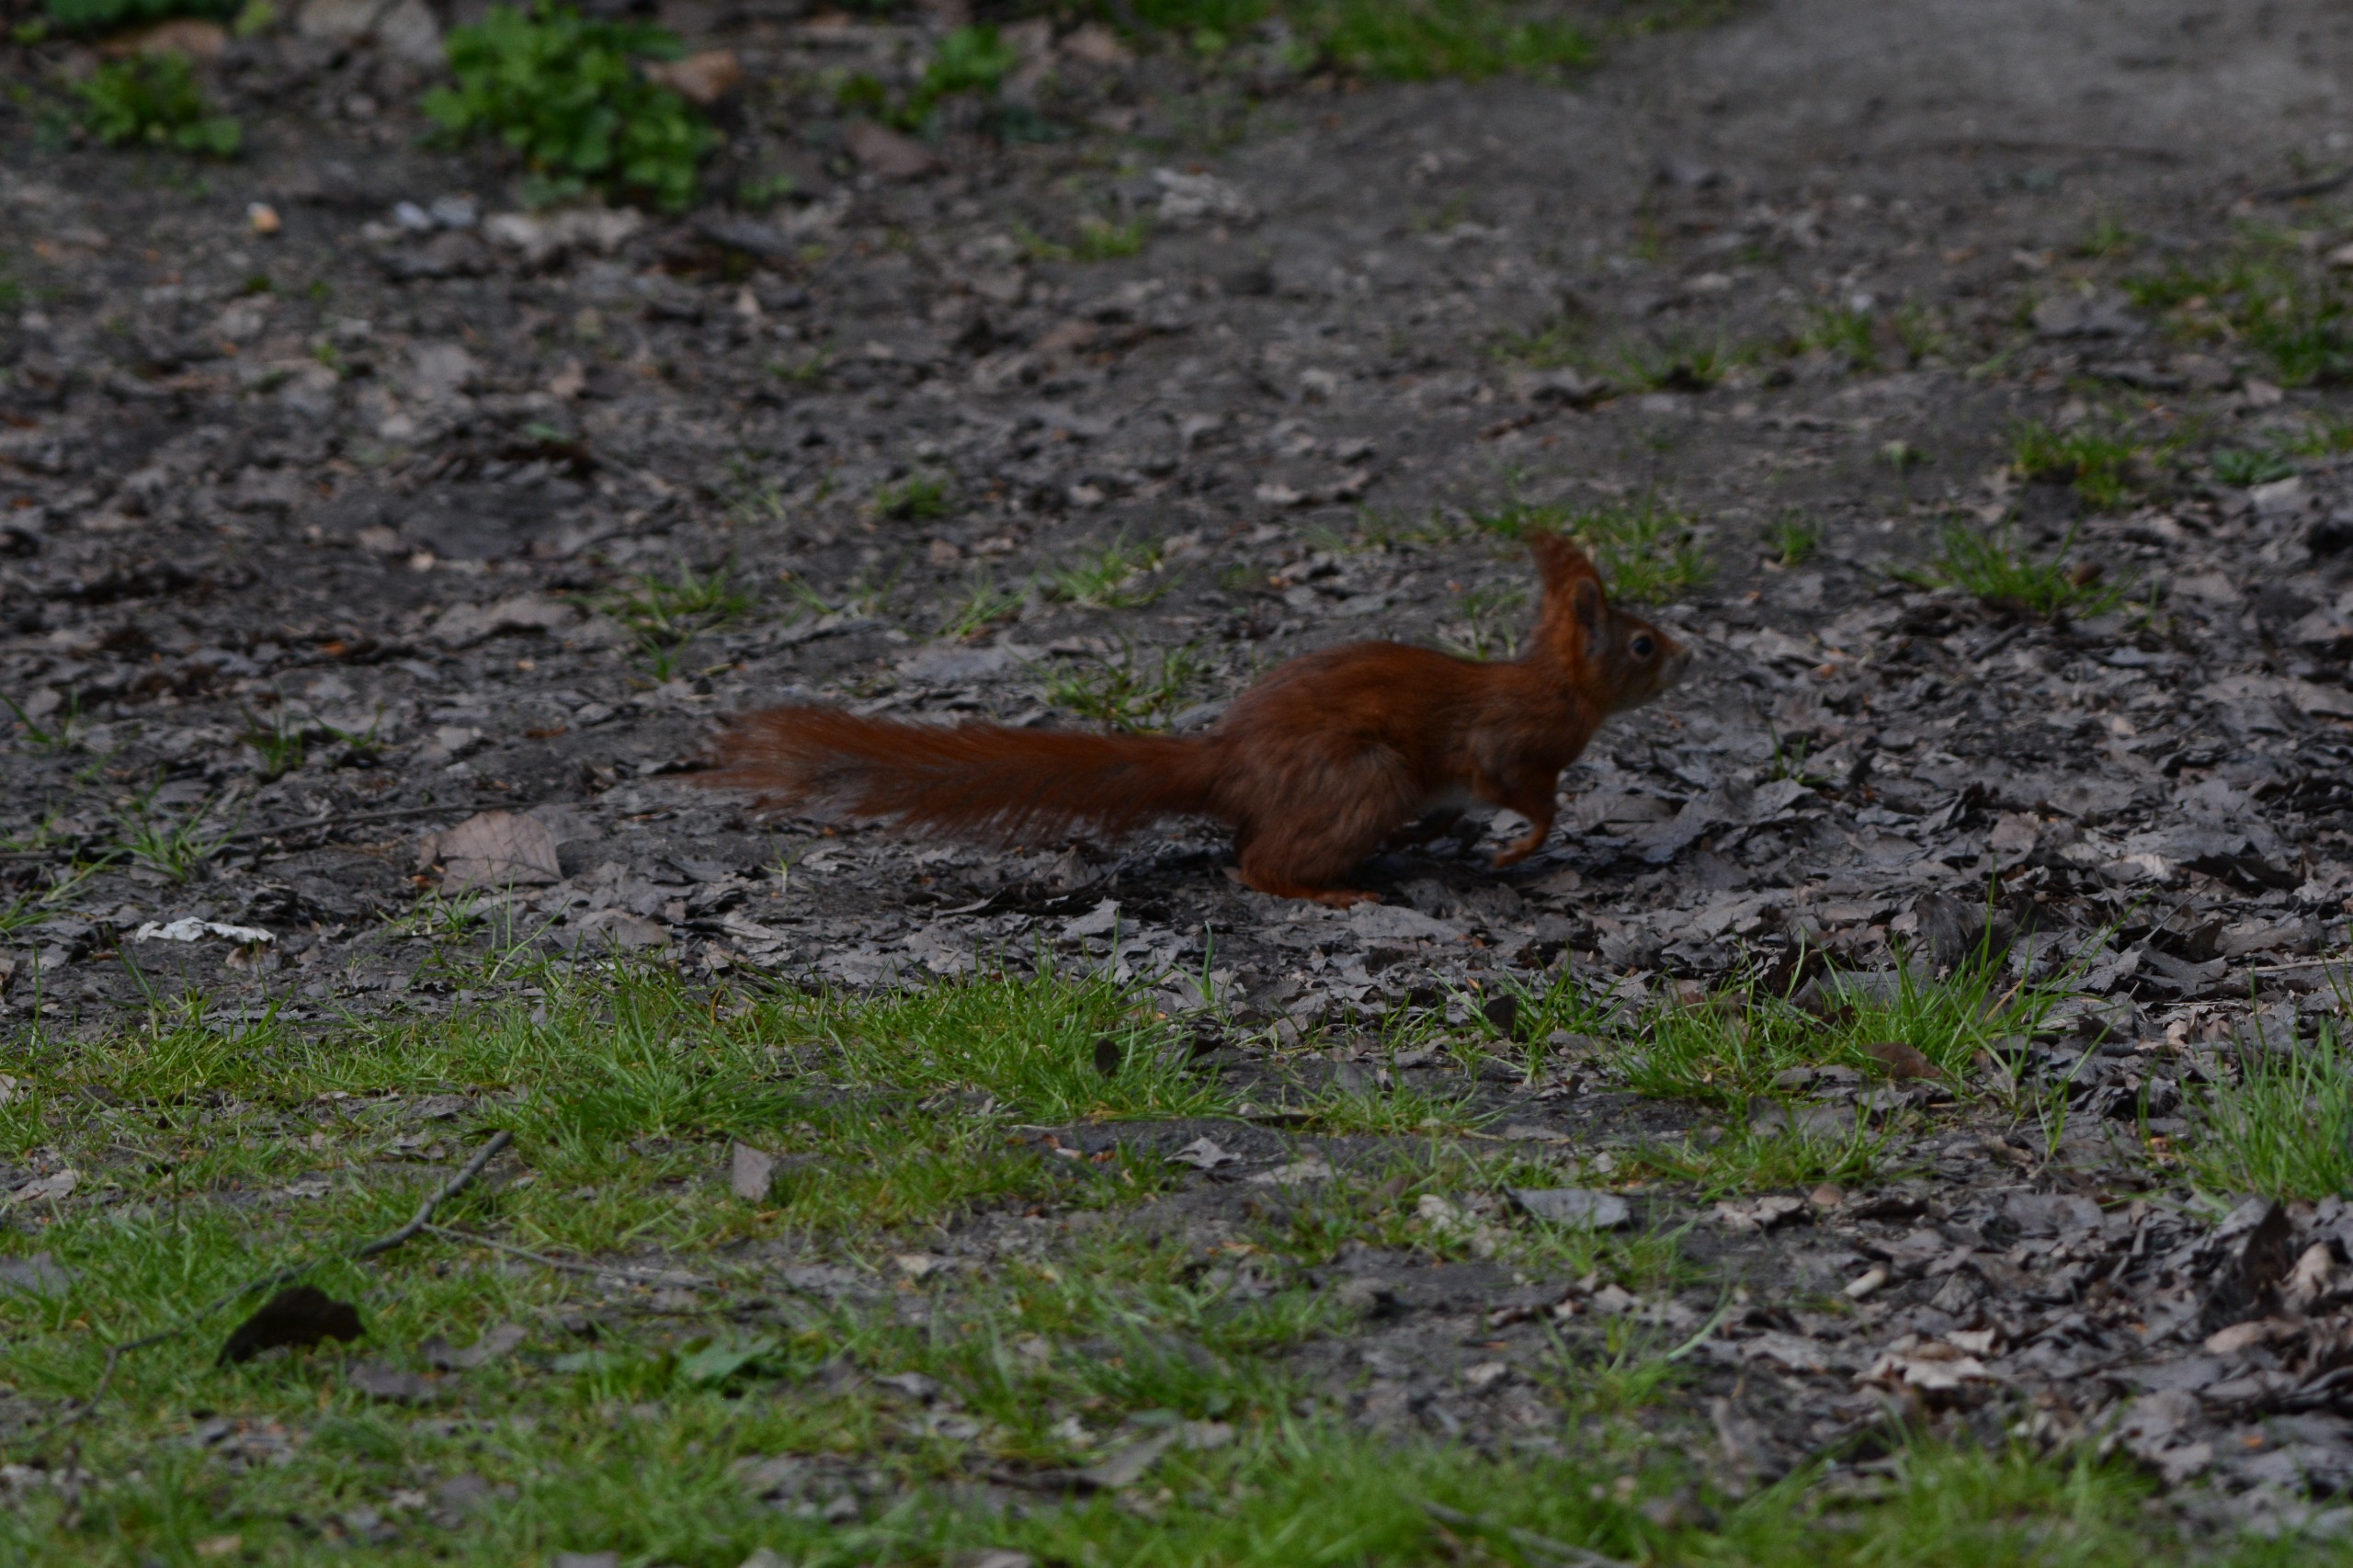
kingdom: Animalia
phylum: Chordata
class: Mammalia
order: Rodentia
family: Sciuridae
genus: Sciurus
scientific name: Sciurus vulgaris
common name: Egern
